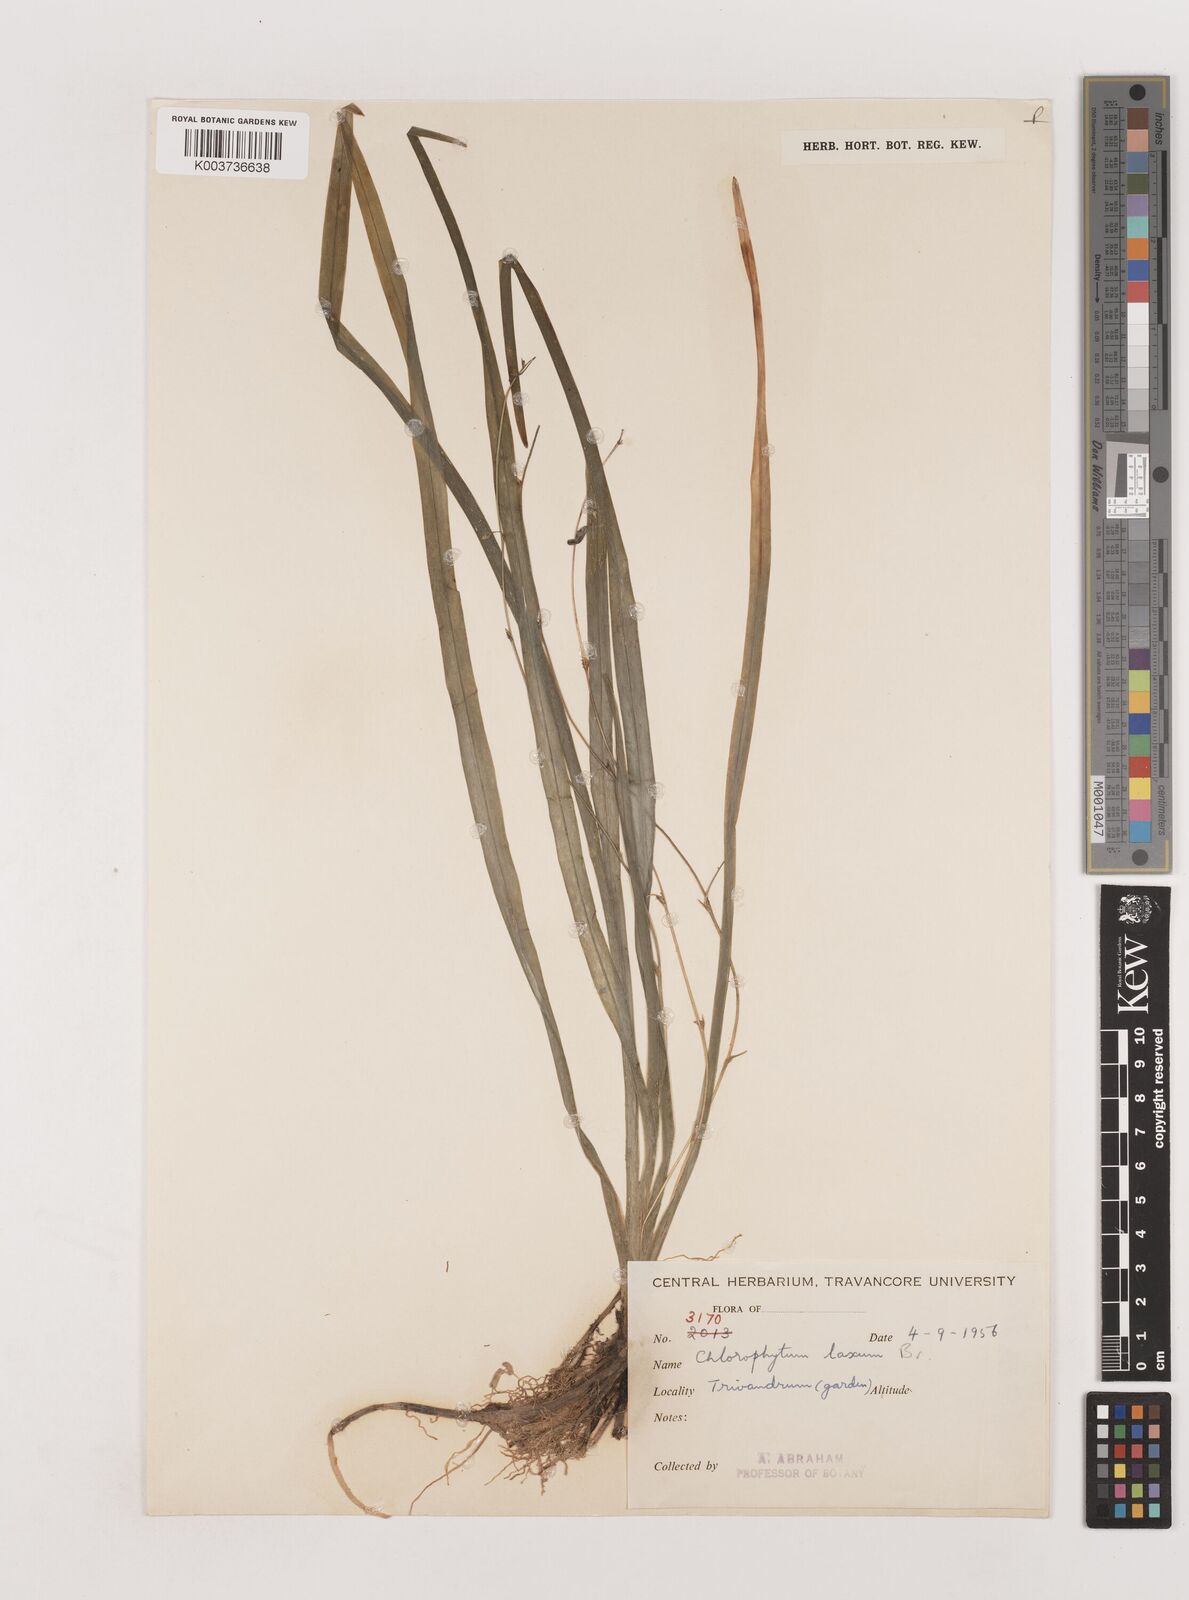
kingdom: Plantae
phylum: Tracheophyta
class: Liliopsida
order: Asparagales
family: Asparagaceae
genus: Chlorophytum
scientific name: Chlorophytum laxum
